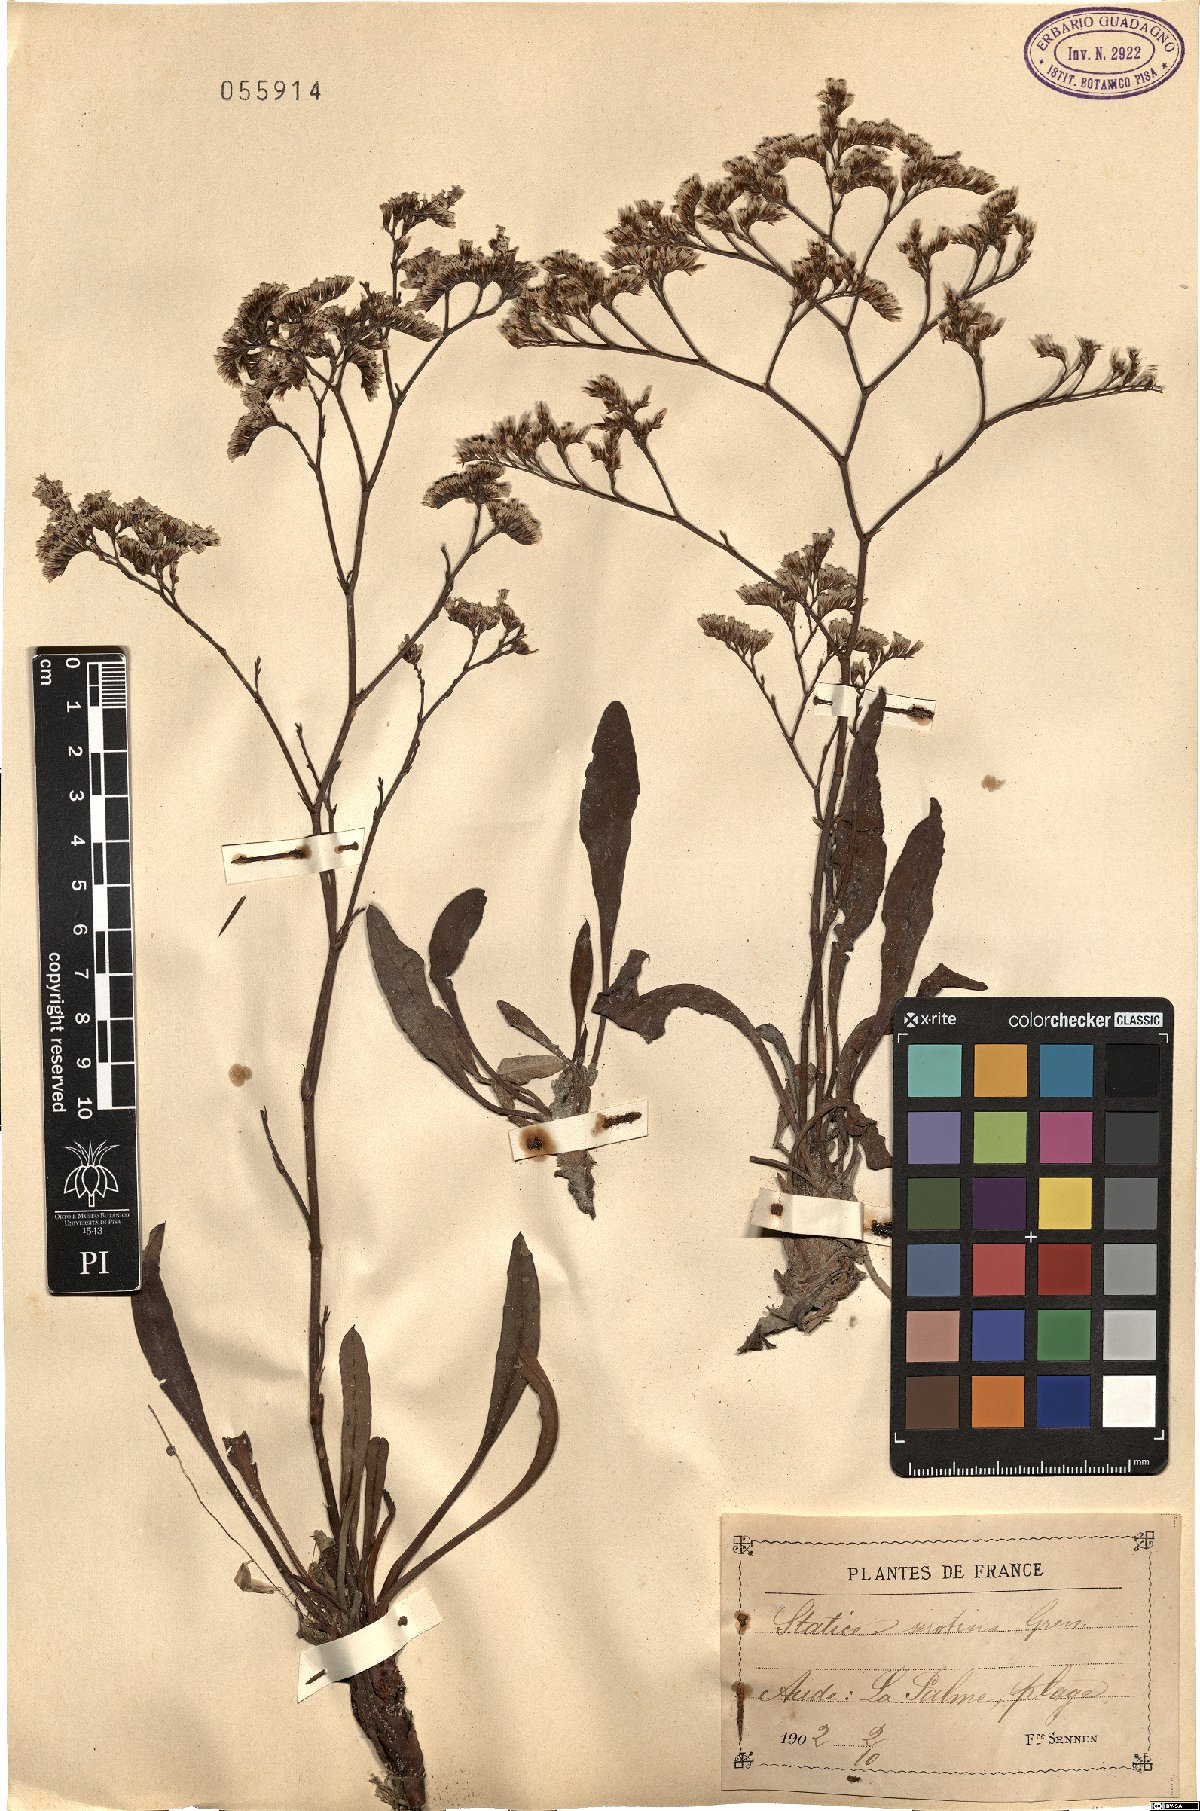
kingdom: Plantae
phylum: Tracheophyta
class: Magnoliopsida
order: Caryophyllales
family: Plumbaginaceae
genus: Limonium
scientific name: Limonium narbonense
